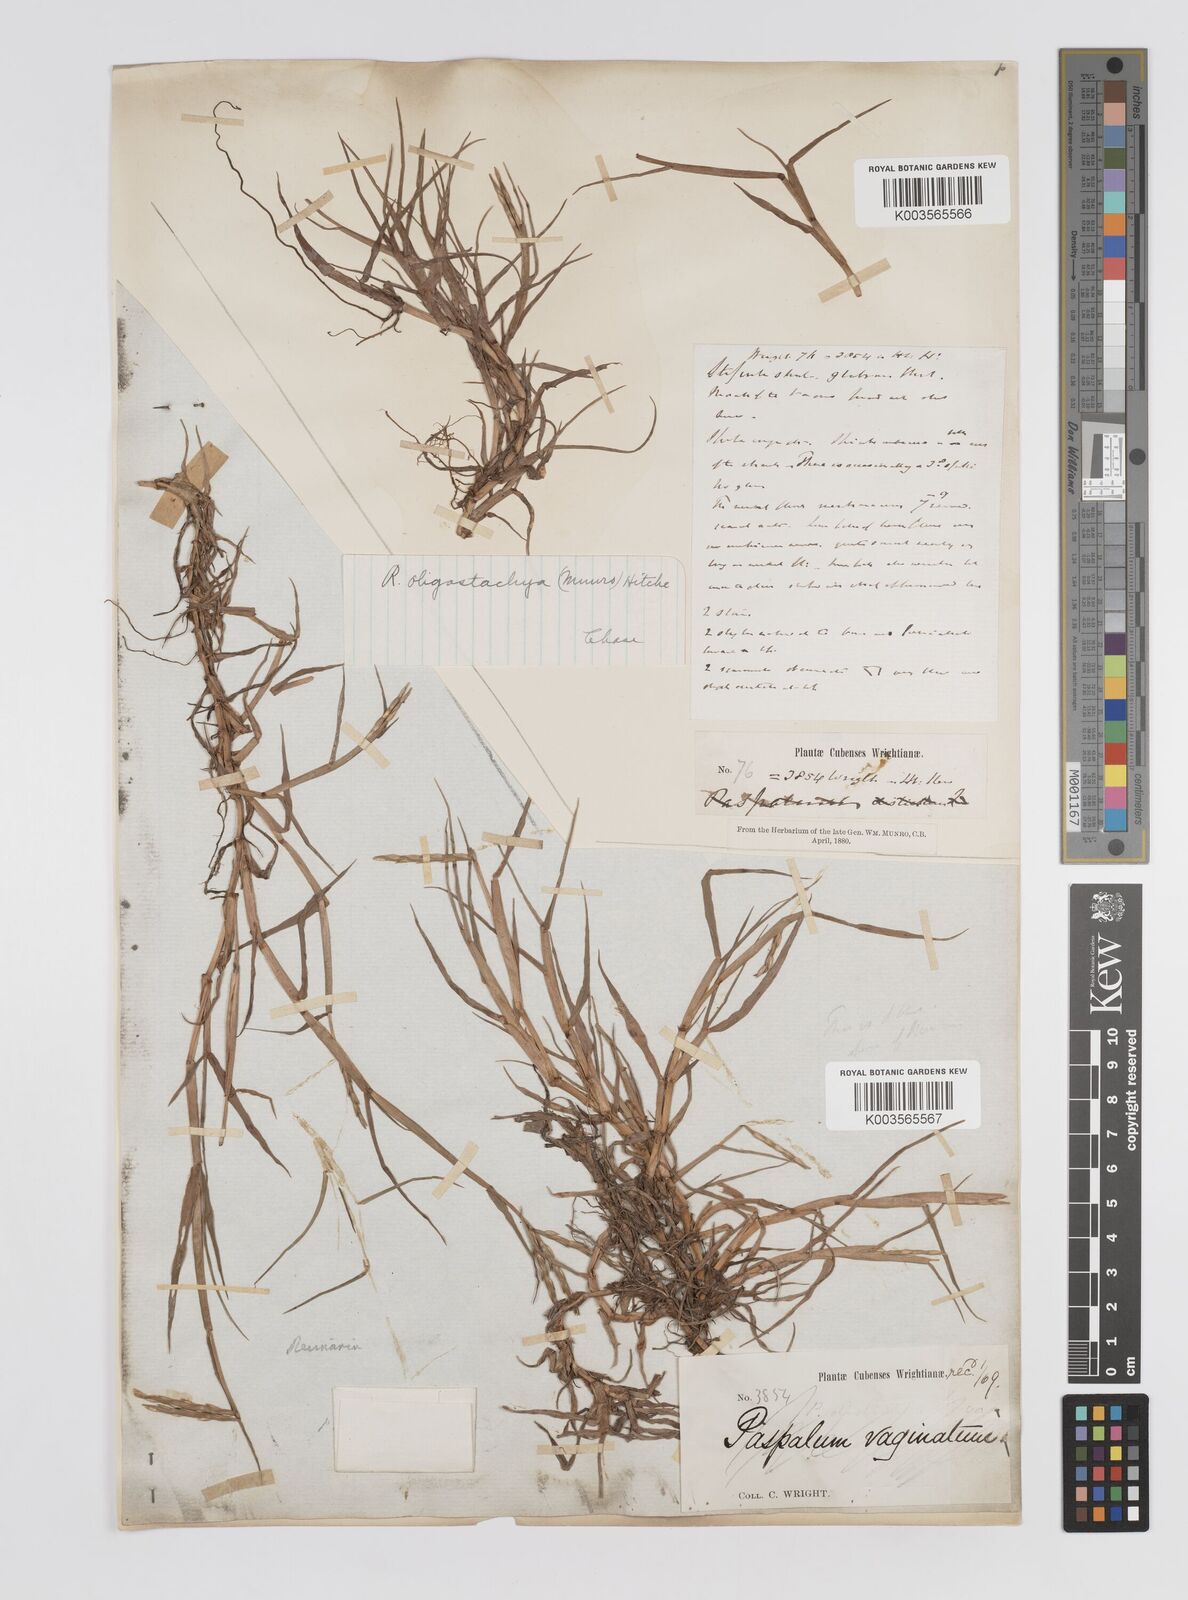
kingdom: Plantae
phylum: Tracheophyta
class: Liliopsida
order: Poales
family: Poaceae
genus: Paspalum
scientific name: Paspalum eglume
